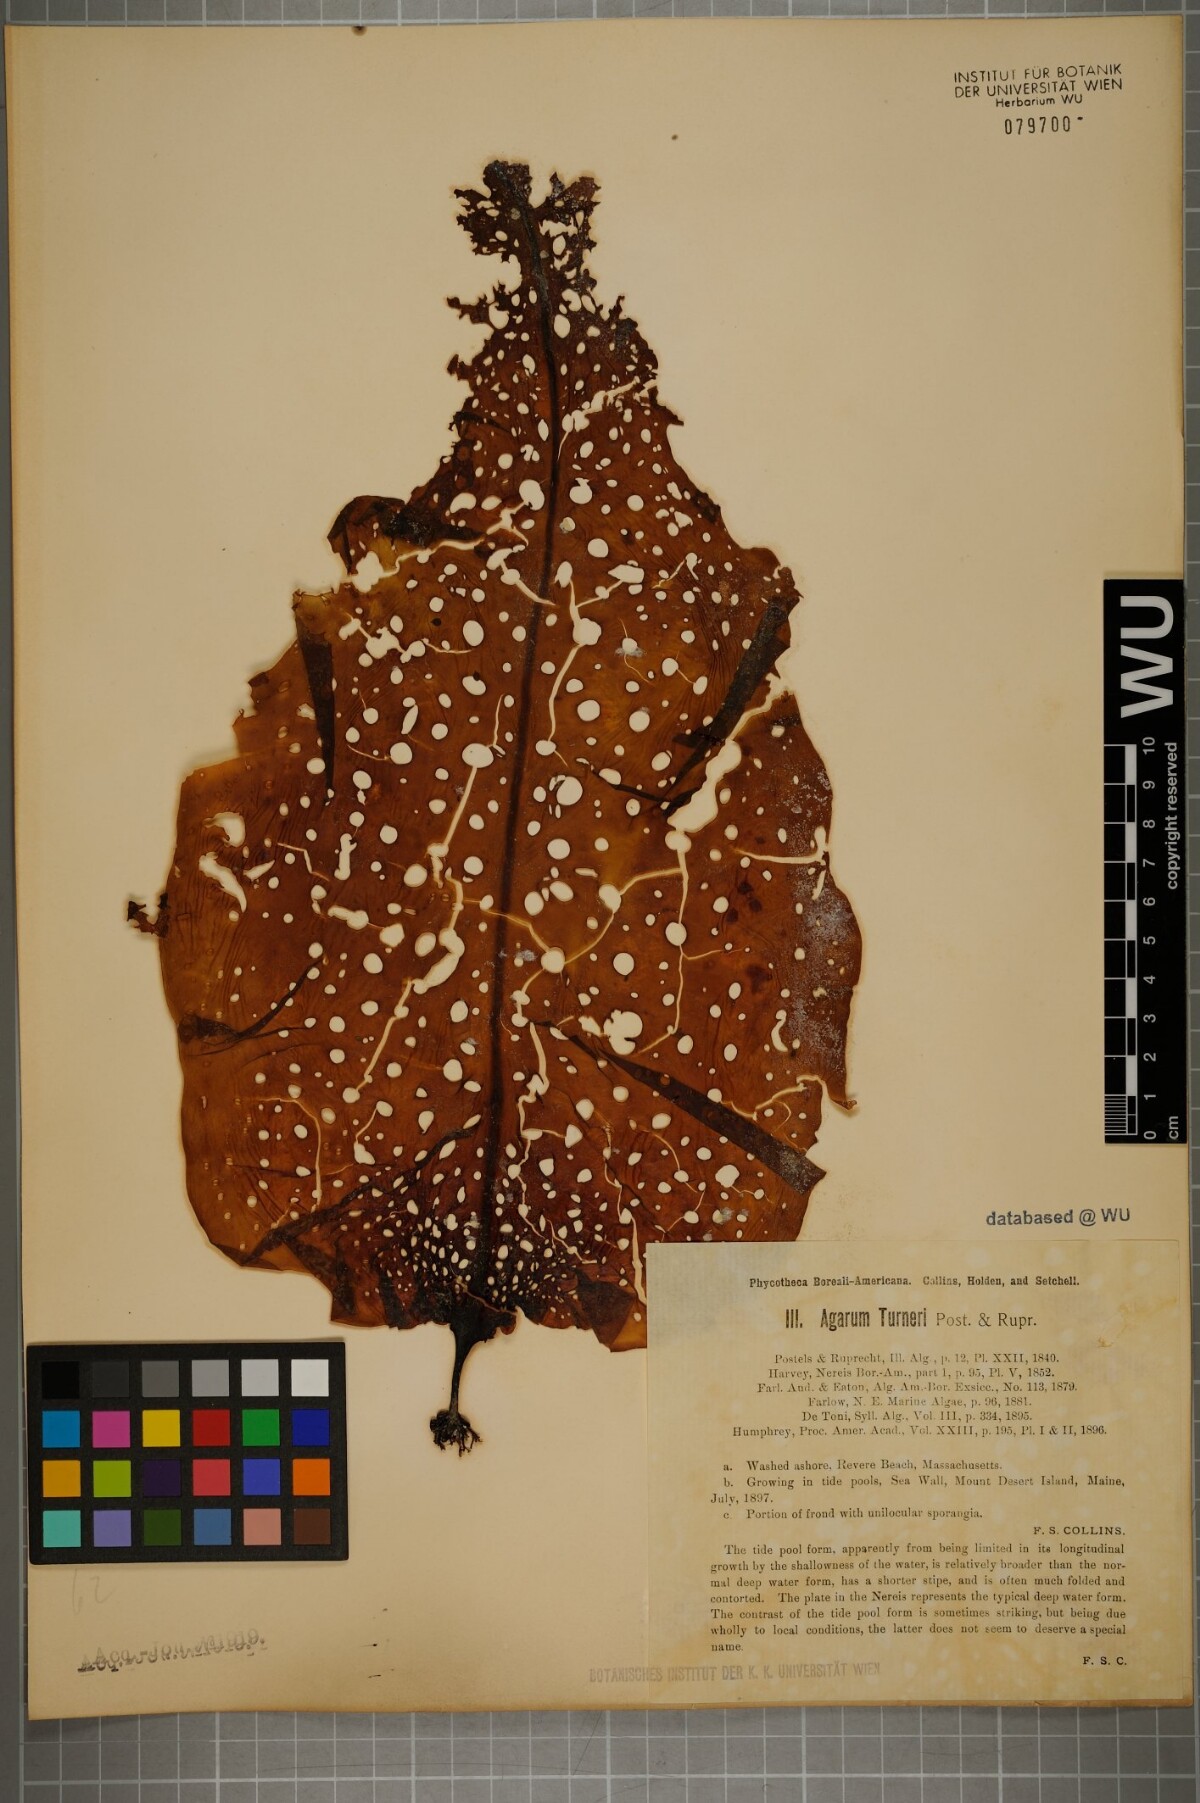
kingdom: Chromista
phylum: Ochrophyta
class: Phaeophyceae
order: Laminariales
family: Costariaceae
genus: Agarum
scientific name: Agarum turneri
